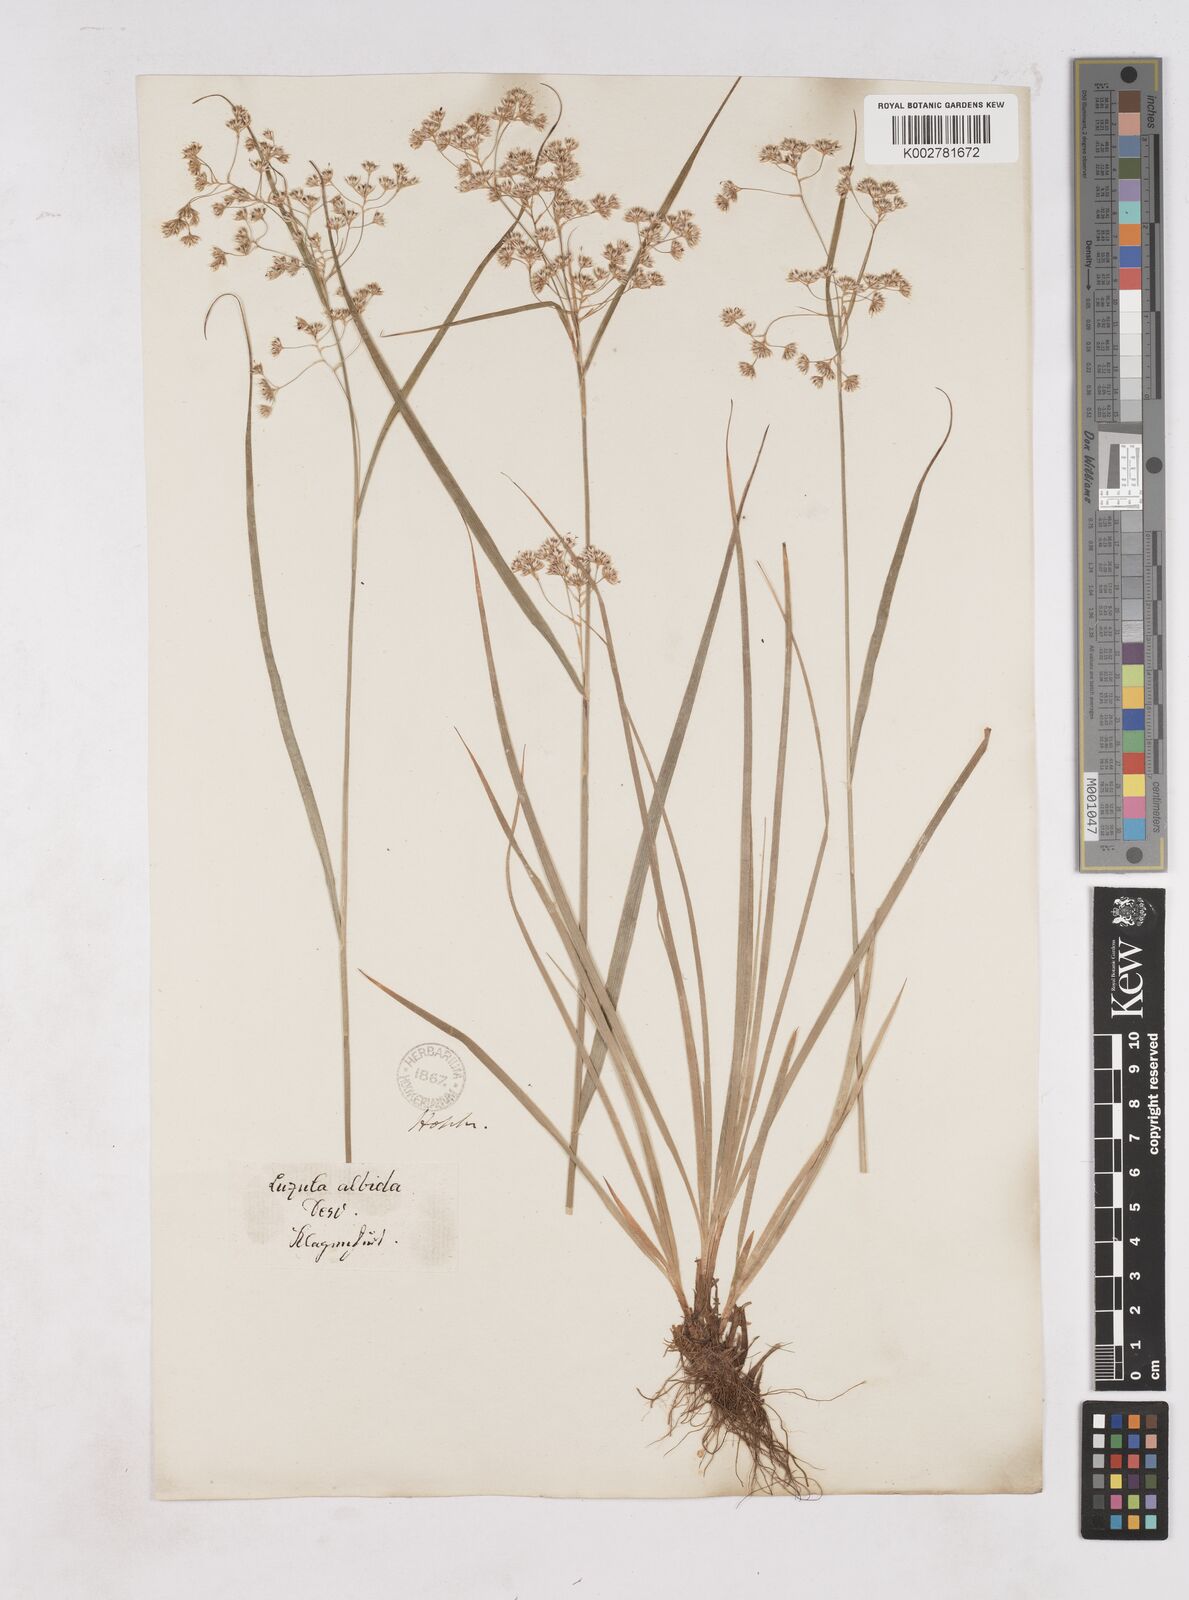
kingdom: Plantae
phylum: Tracheophyta
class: Liliopsida
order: Poales
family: Juncaceae
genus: Luzula
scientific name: Luzula luzuloides
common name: White wood-rush
